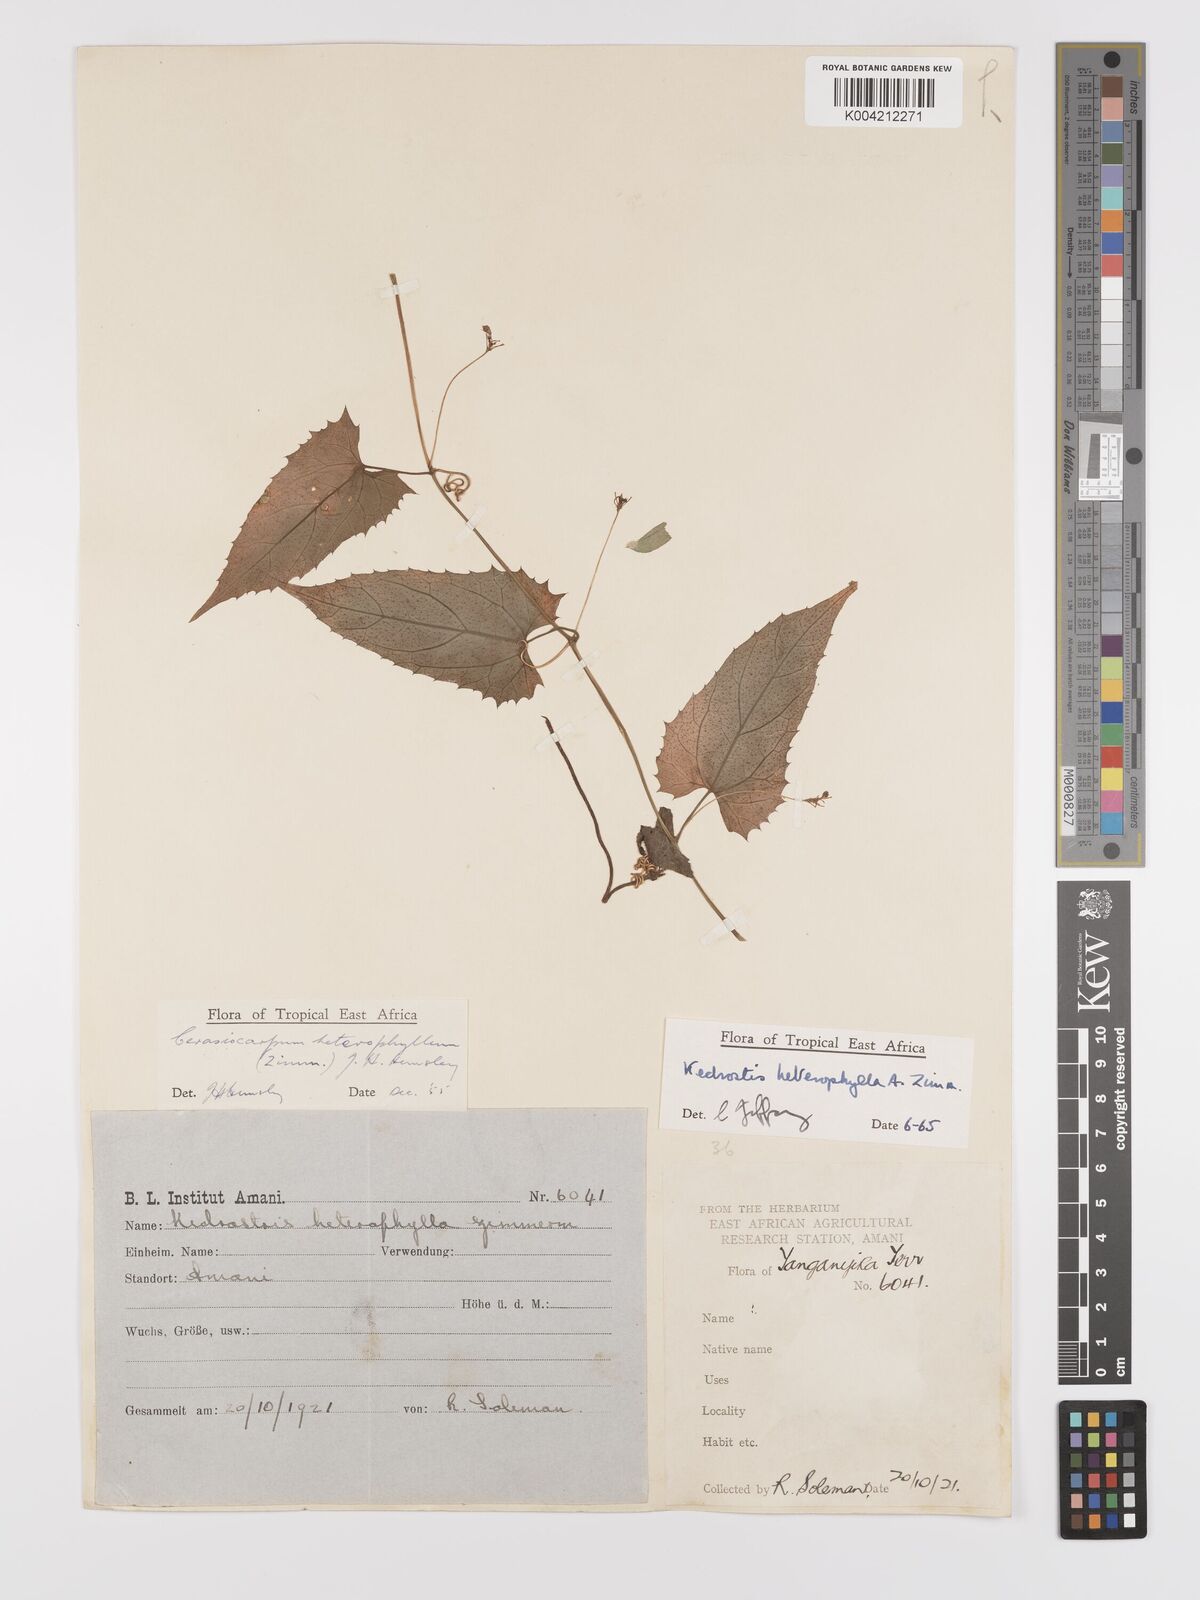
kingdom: Plantae
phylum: Tracheophyta
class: Magnoliopsida
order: Cucurbitales
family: Cucurbitaceae
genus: Kedrostis
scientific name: Kedrostis heterophylla
